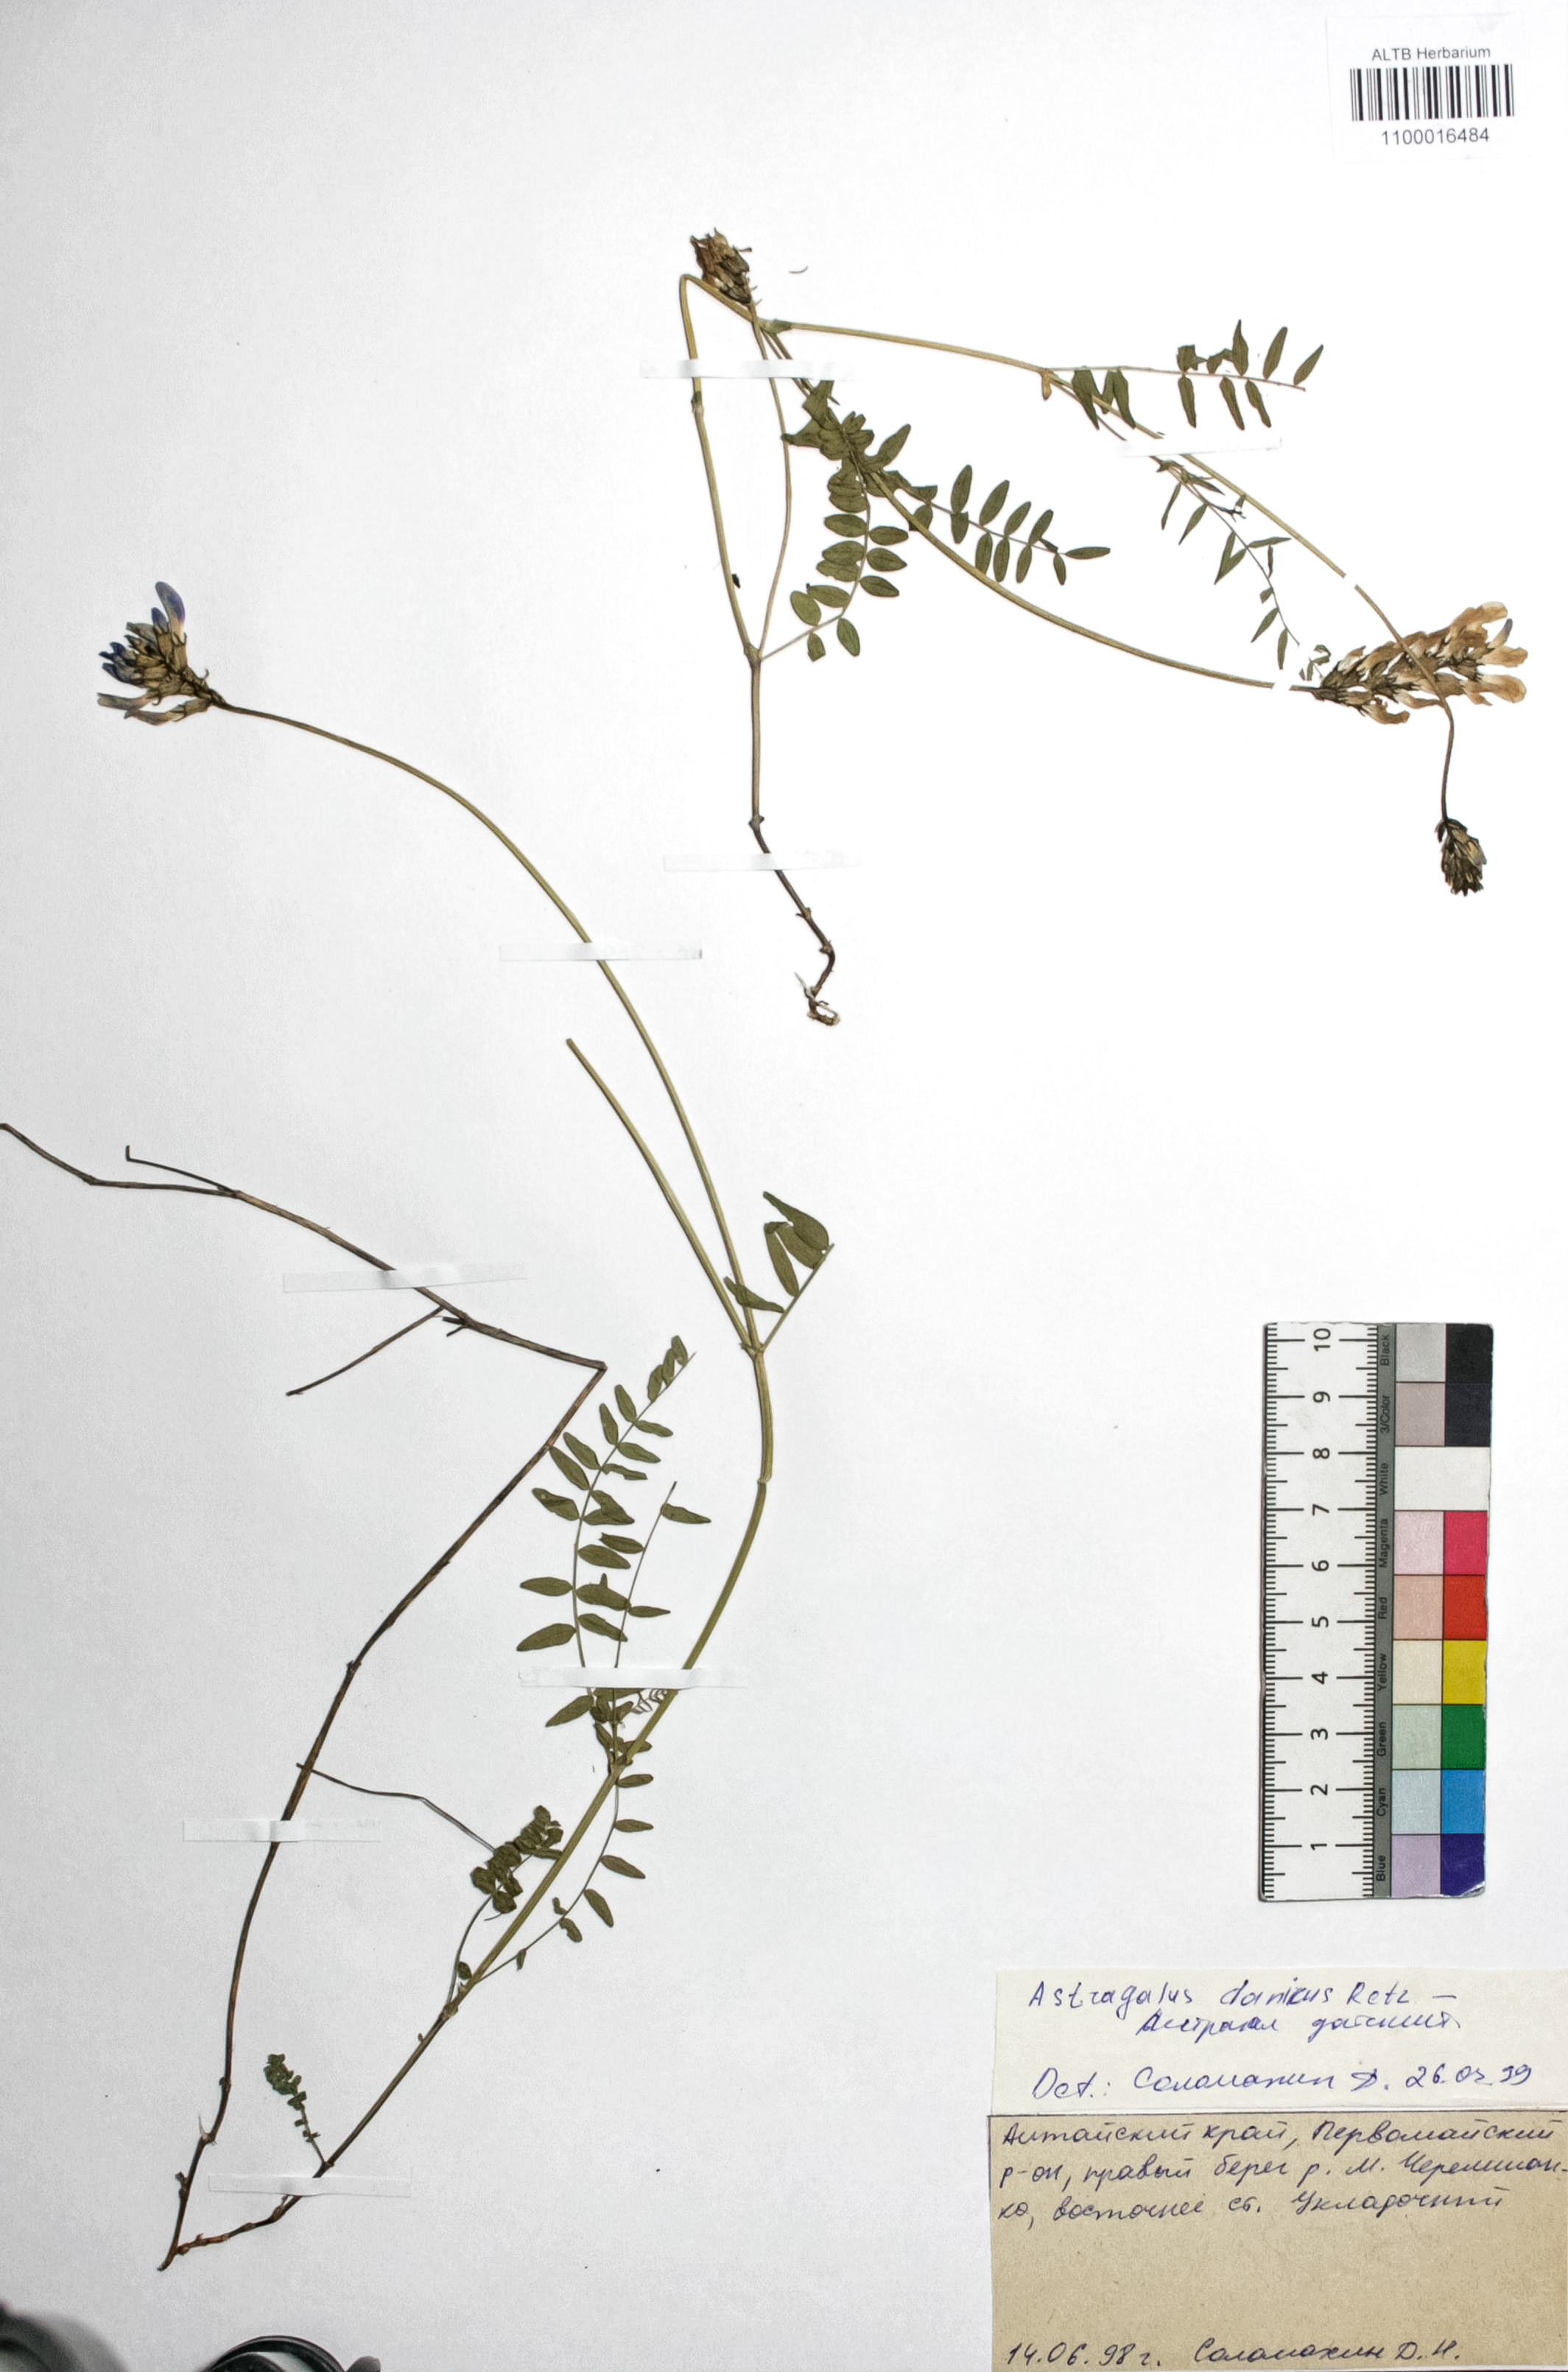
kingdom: Plantae
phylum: Tracheophyta
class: Magnoliopsida
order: Fabales
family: Fabaceae
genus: Astragalus
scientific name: Astragalus danicus
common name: Purple milk-vetch
